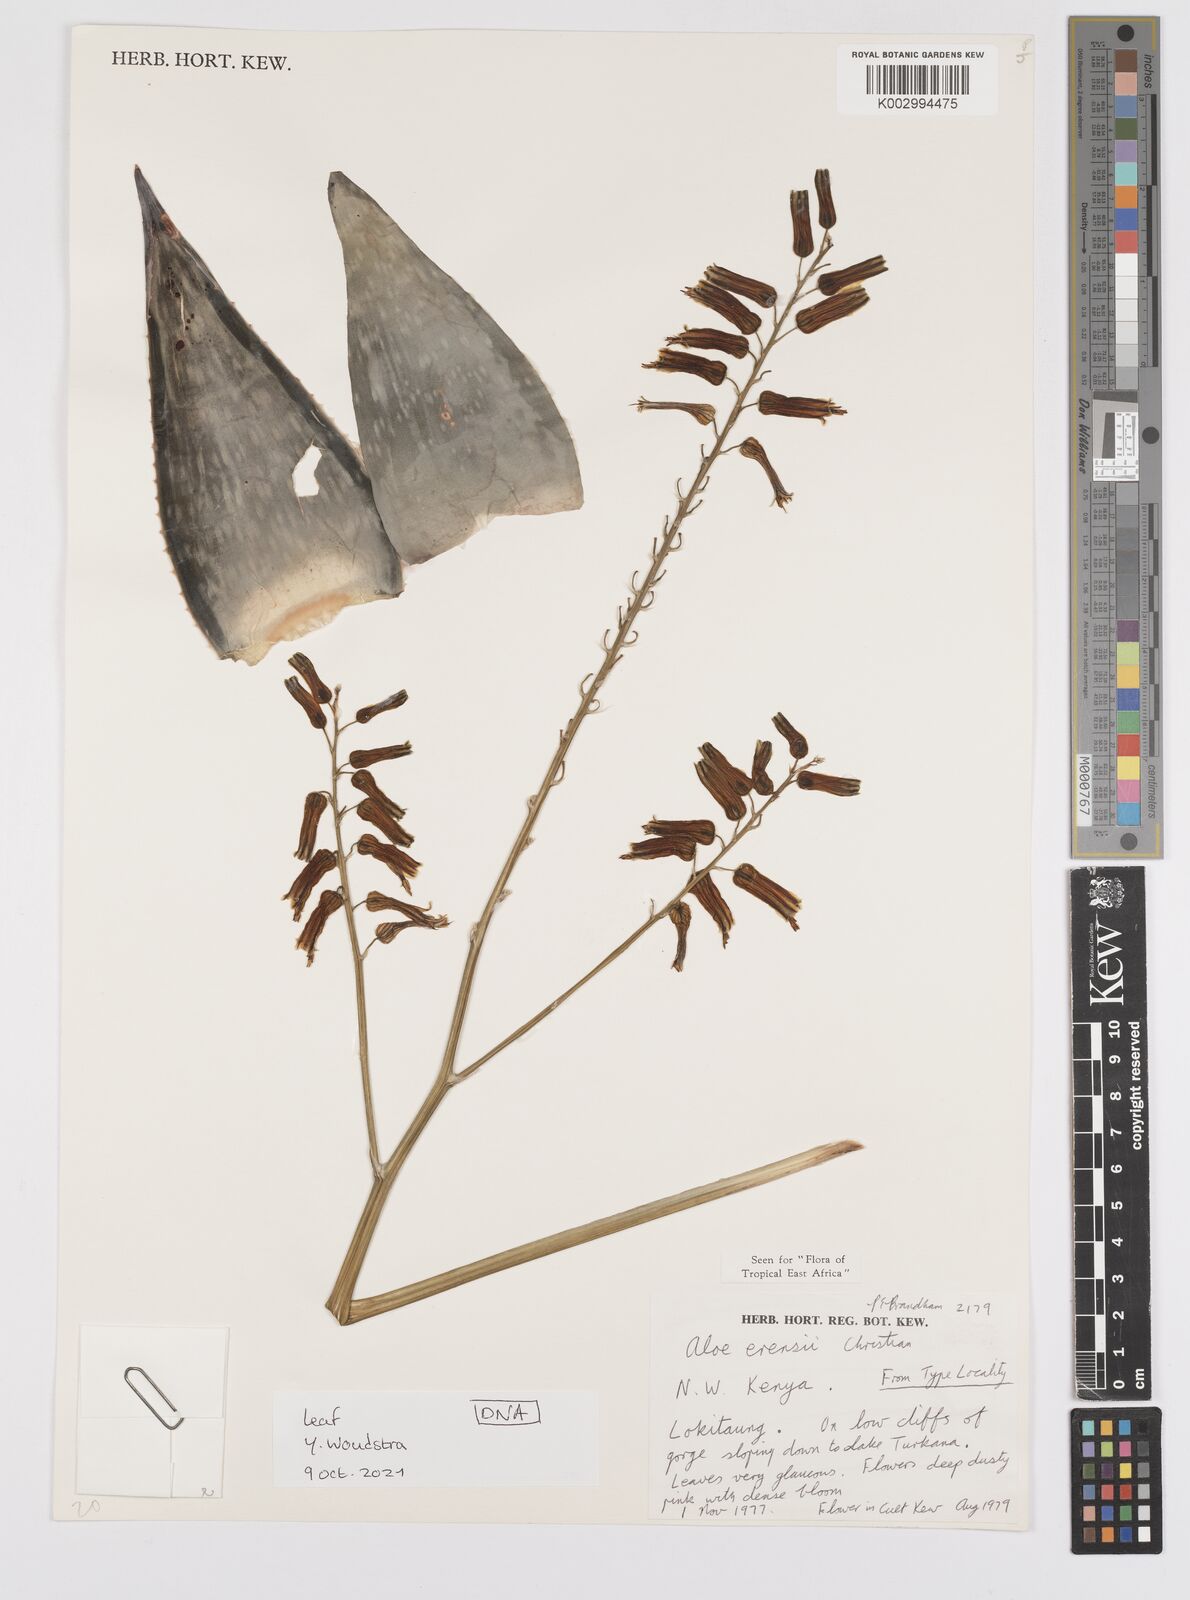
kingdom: Plantae
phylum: Tracheophyta
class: Liliopsida
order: Asparagales
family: Asphodelaceae
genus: Aloe
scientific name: Aloe erensii
